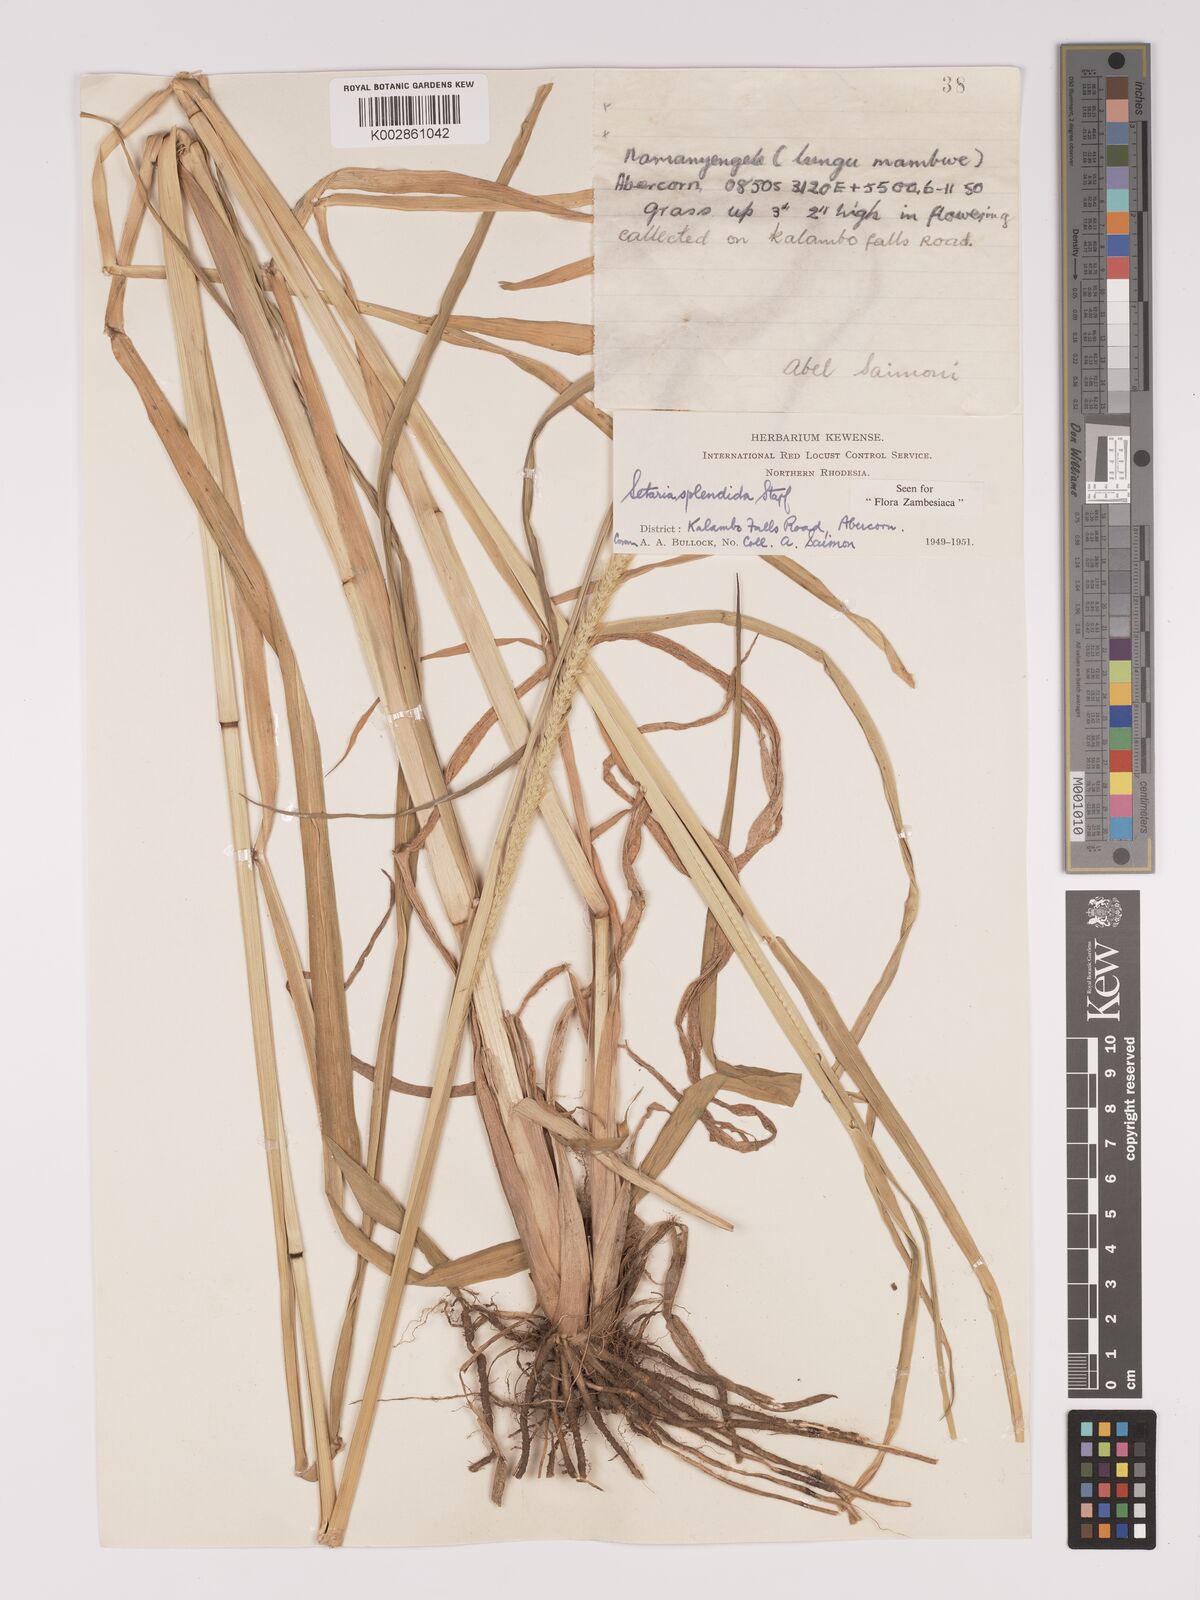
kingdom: Plantae
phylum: Tracheophyta
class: Liliopsida
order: Poales
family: Poaceae
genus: Setaria
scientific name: Setaria sphacelata
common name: African bristlegrass
